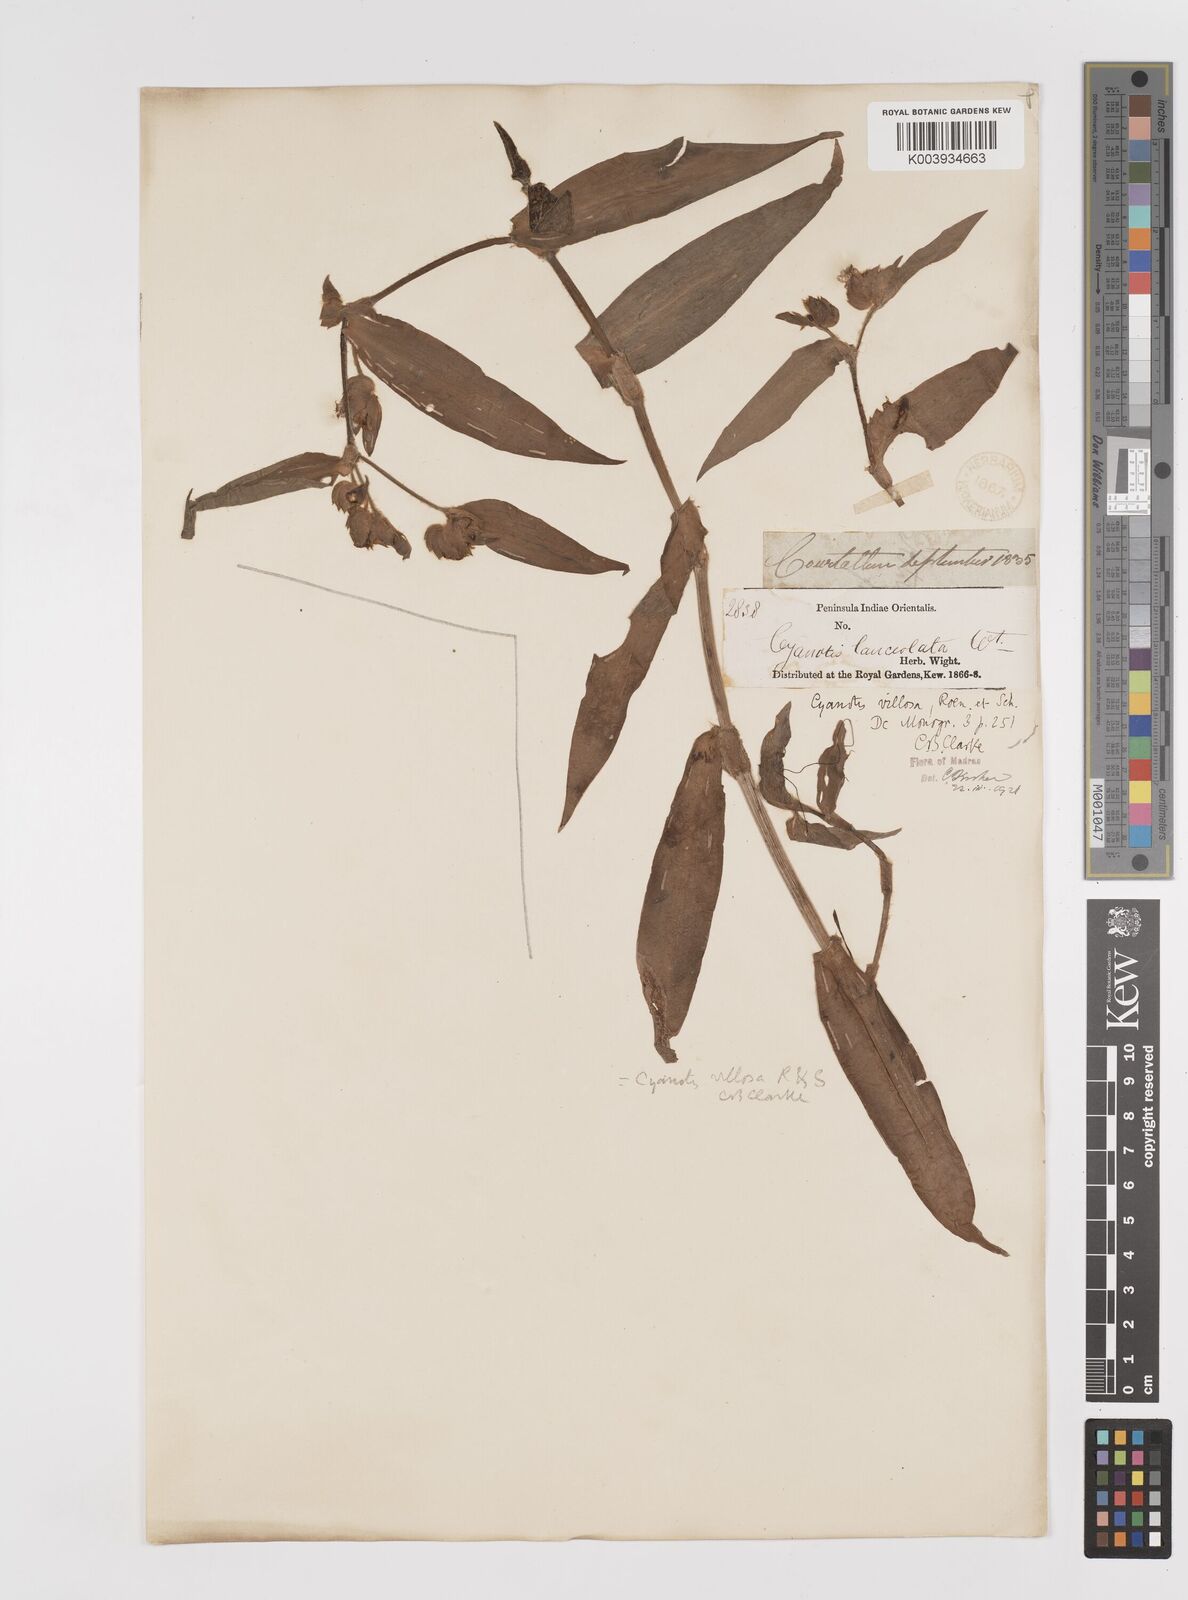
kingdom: Plantae
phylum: Tracheophyta
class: Liliopsida
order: Commelinales
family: Commelinaceae
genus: Cyanotis
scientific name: Cyanotis villosa
